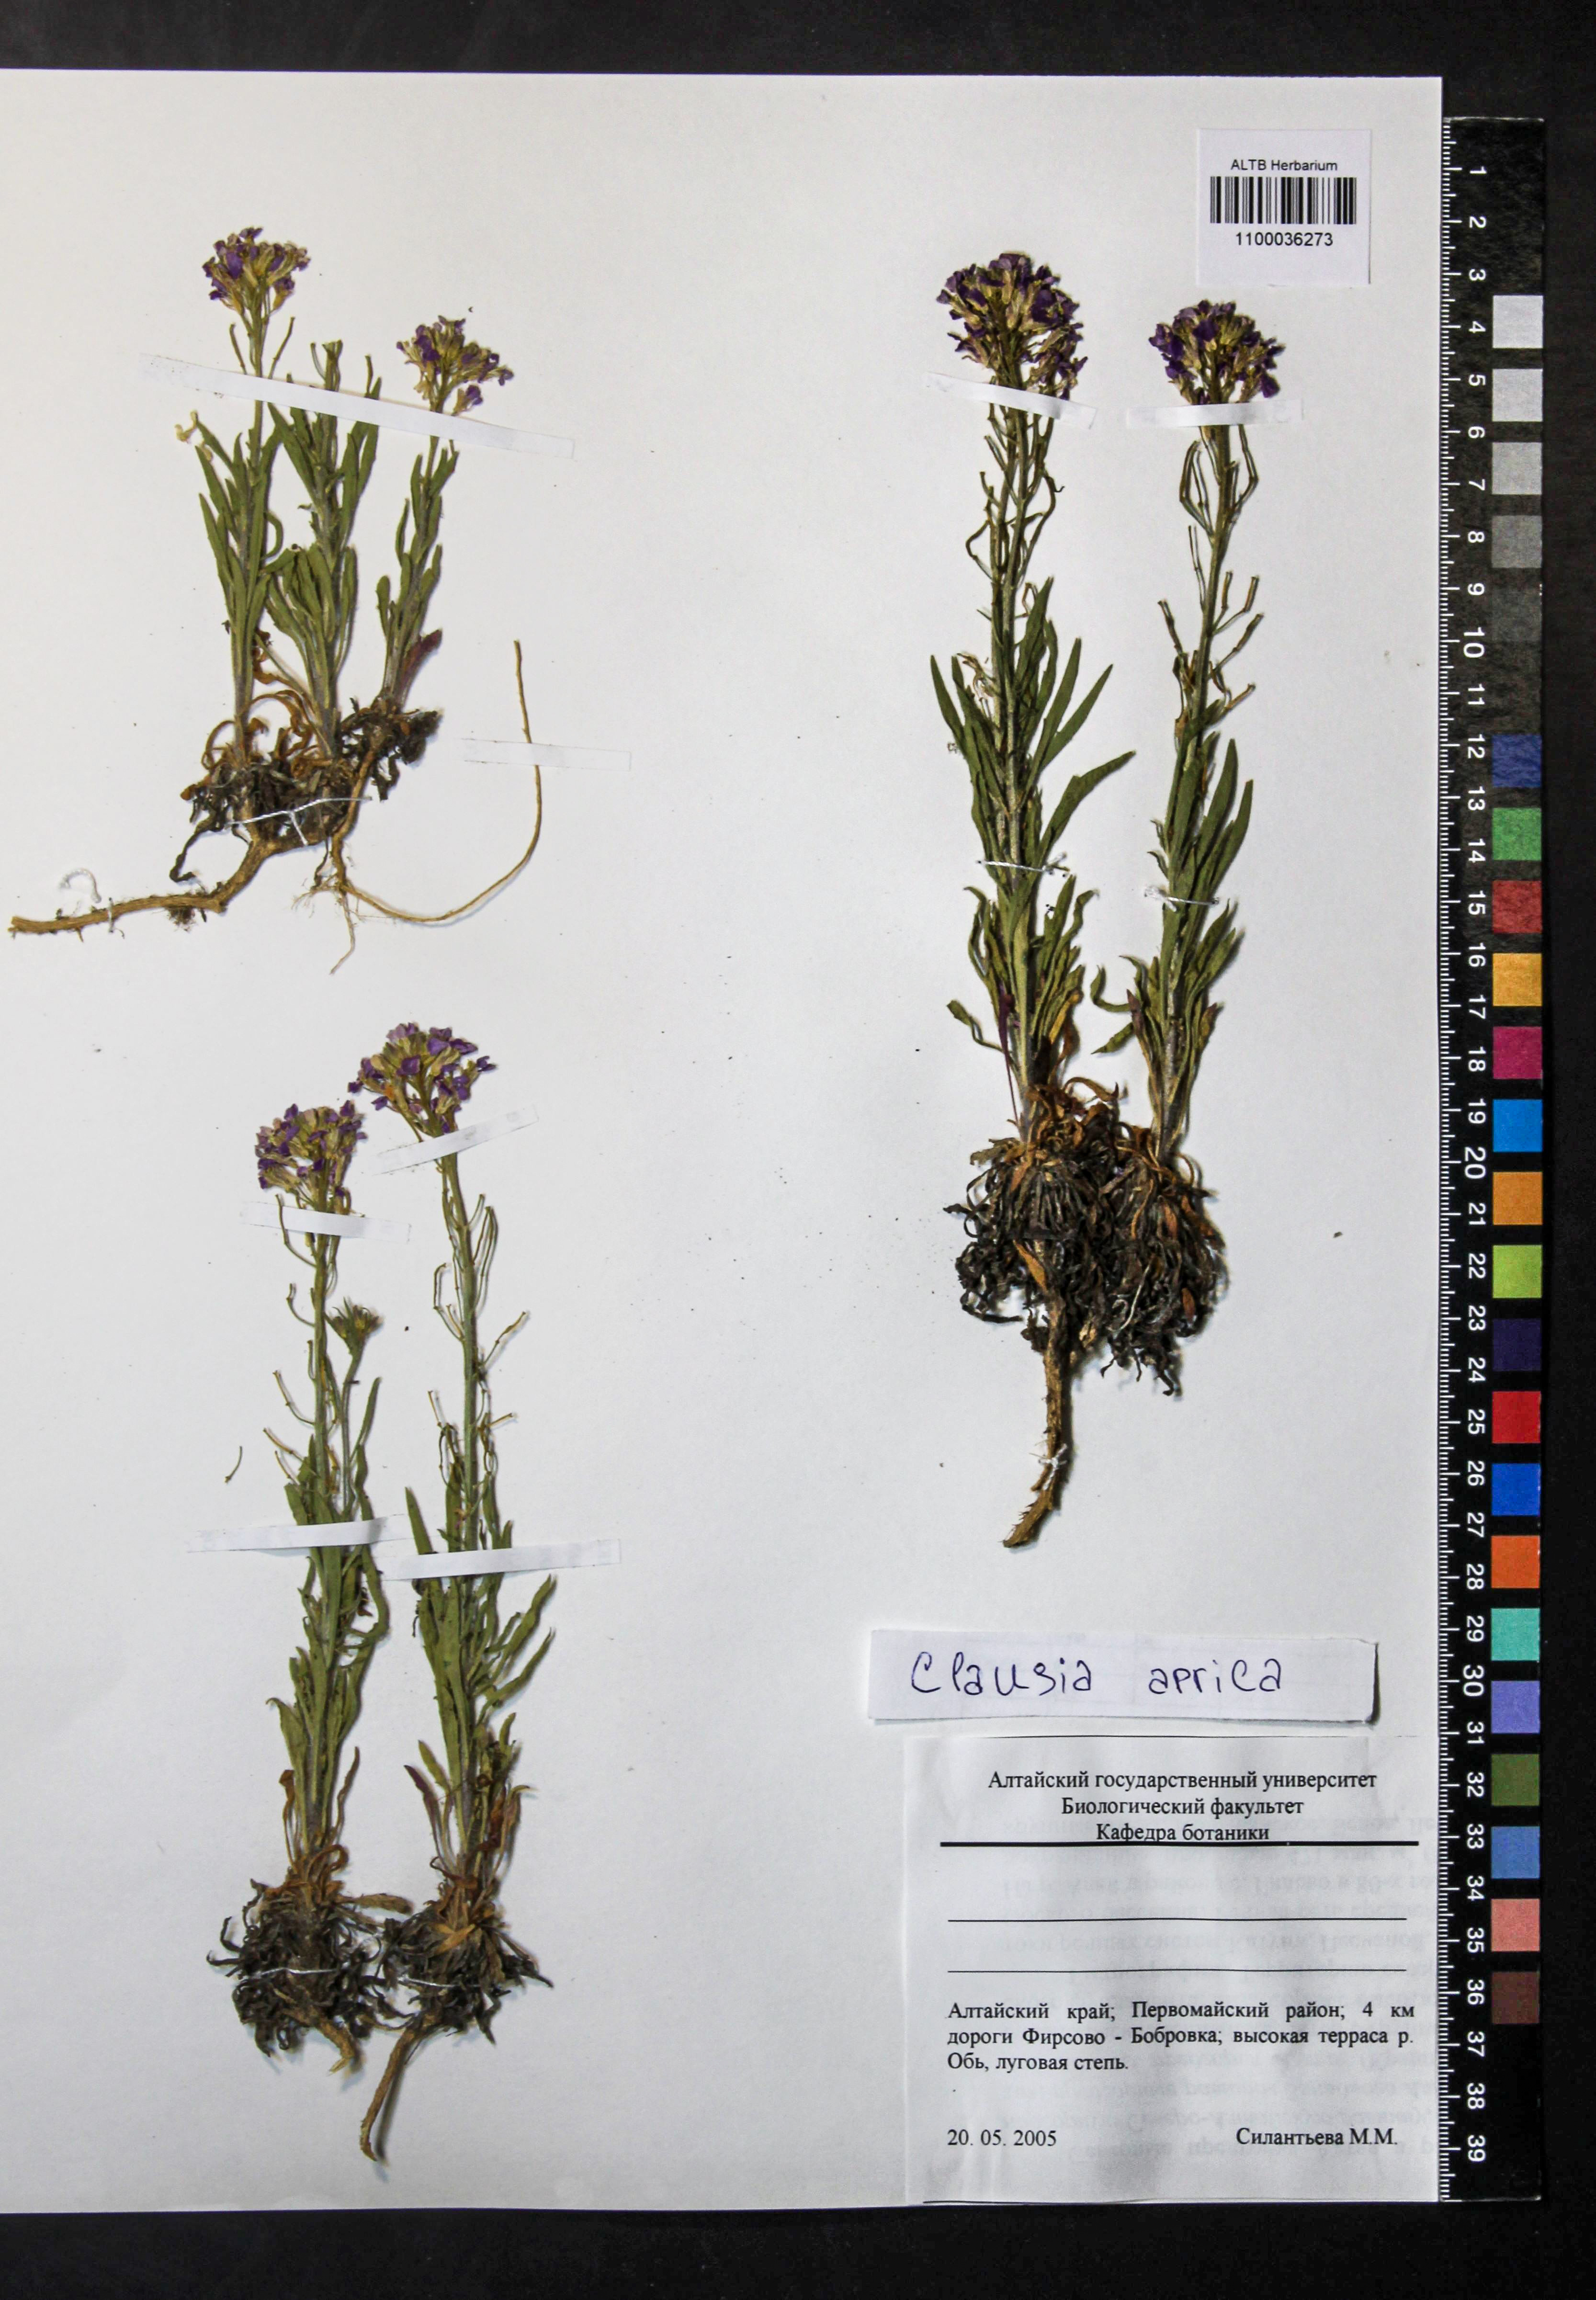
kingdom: Plantae
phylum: Tracheophyta
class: Magnoliopsida
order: Brassicales
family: Brassicaceae
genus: Clausia
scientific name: Clausia aprica
